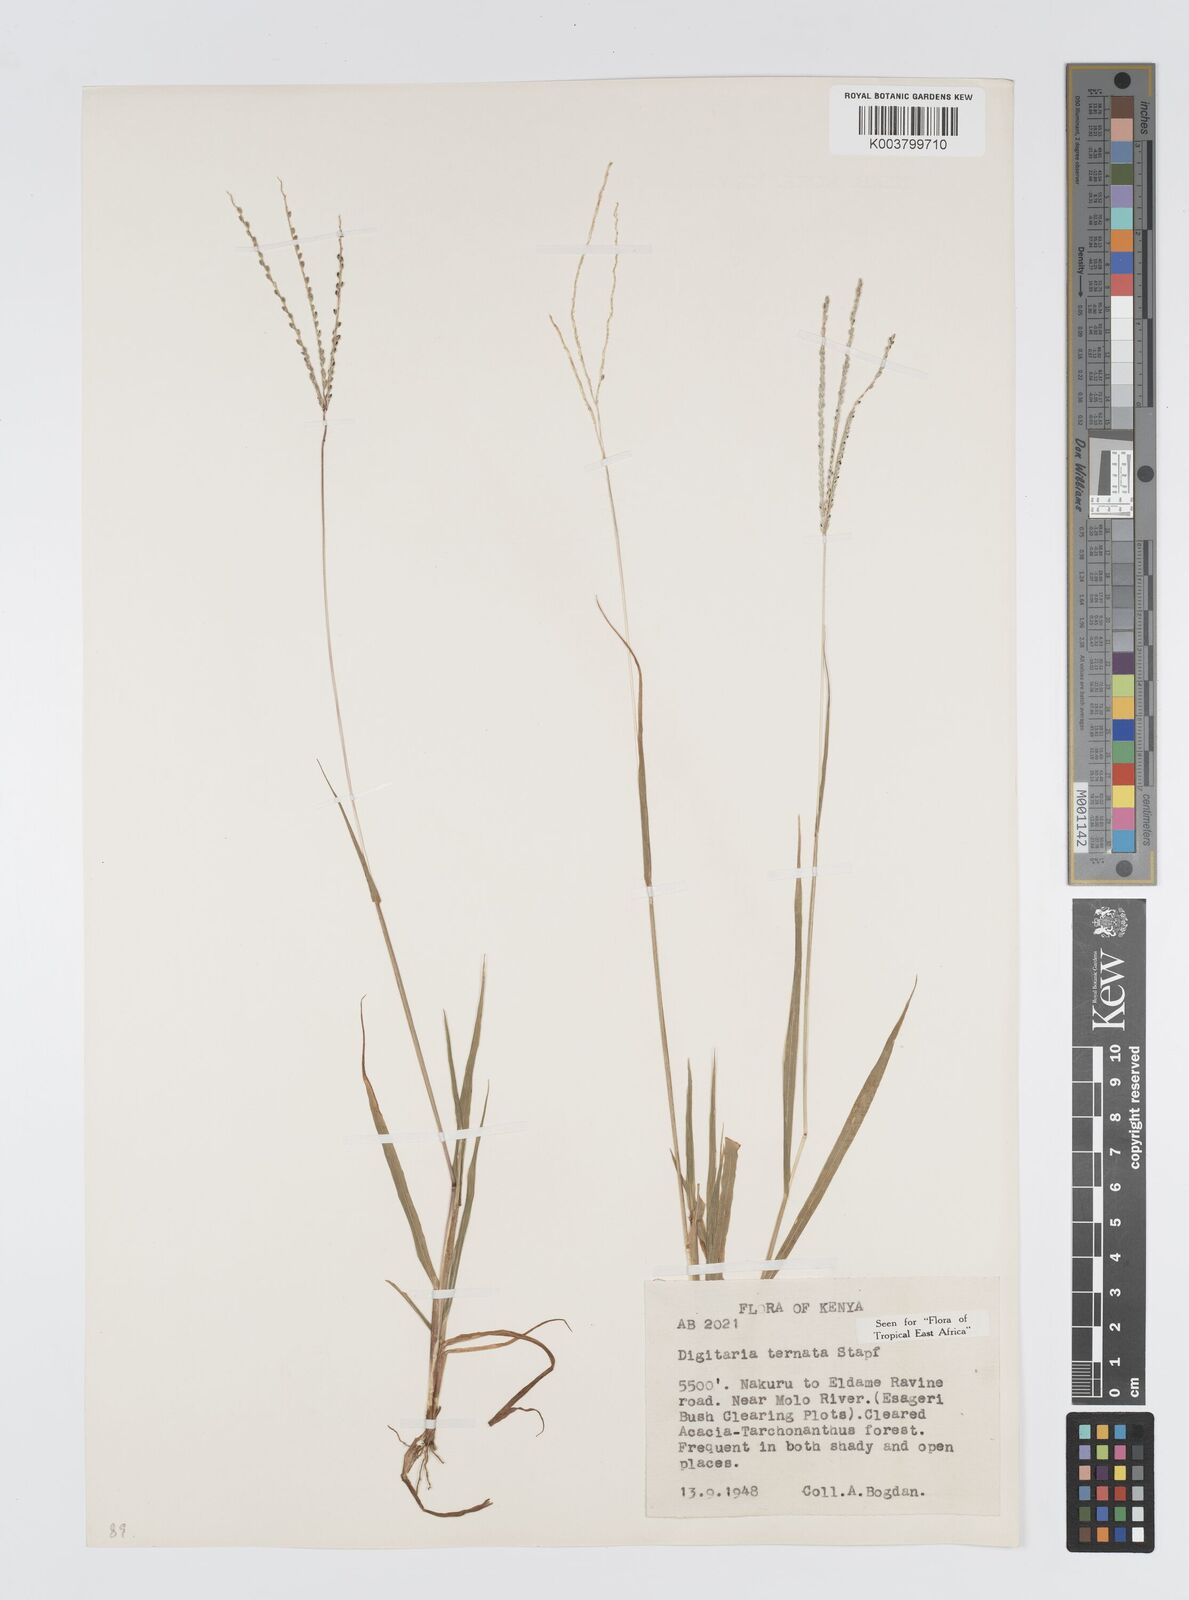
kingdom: Plantae
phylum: Tracheophyta
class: Liliopsida
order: Poales
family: Poaceae
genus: Digitaria
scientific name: Digitaria ternata
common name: Blackseed crabgrass
